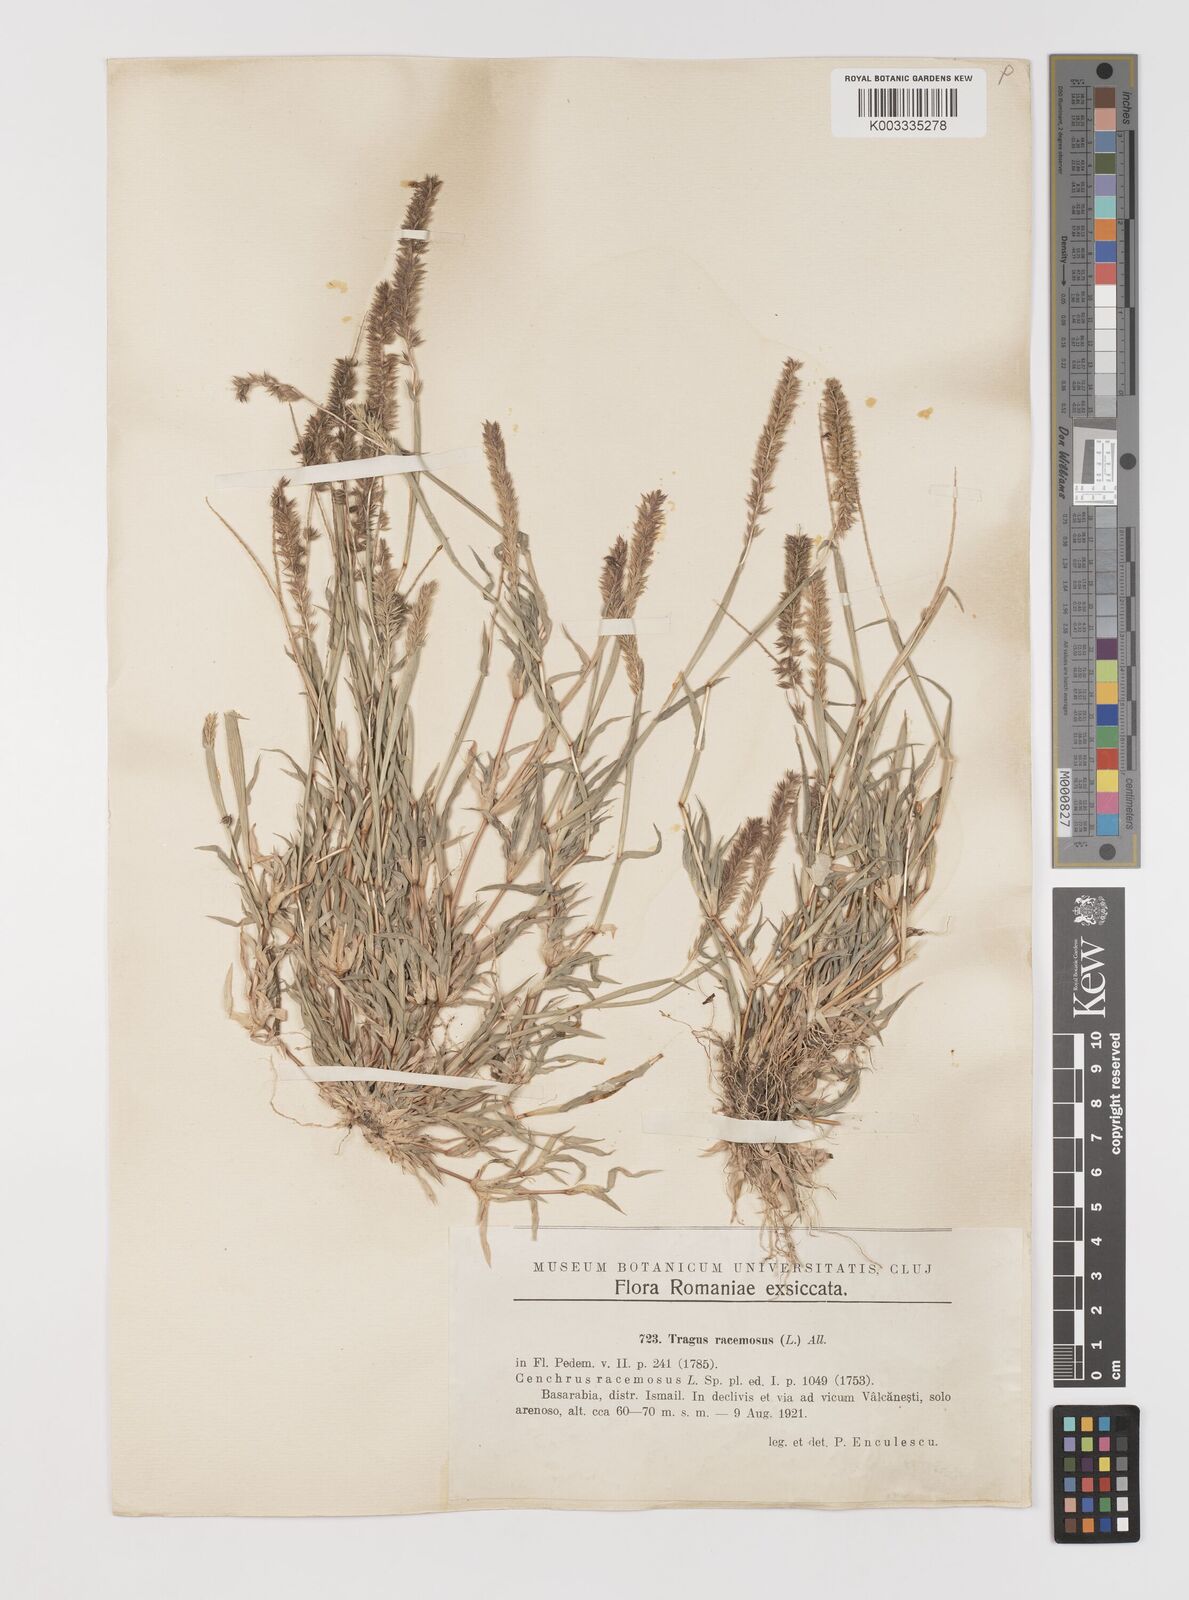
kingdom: Plantae
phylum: Tracheophyta
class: Liliopsida
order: Poales
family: Poaceae
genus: Tragus
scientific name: Tragus racemosus
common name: European bur-grass
